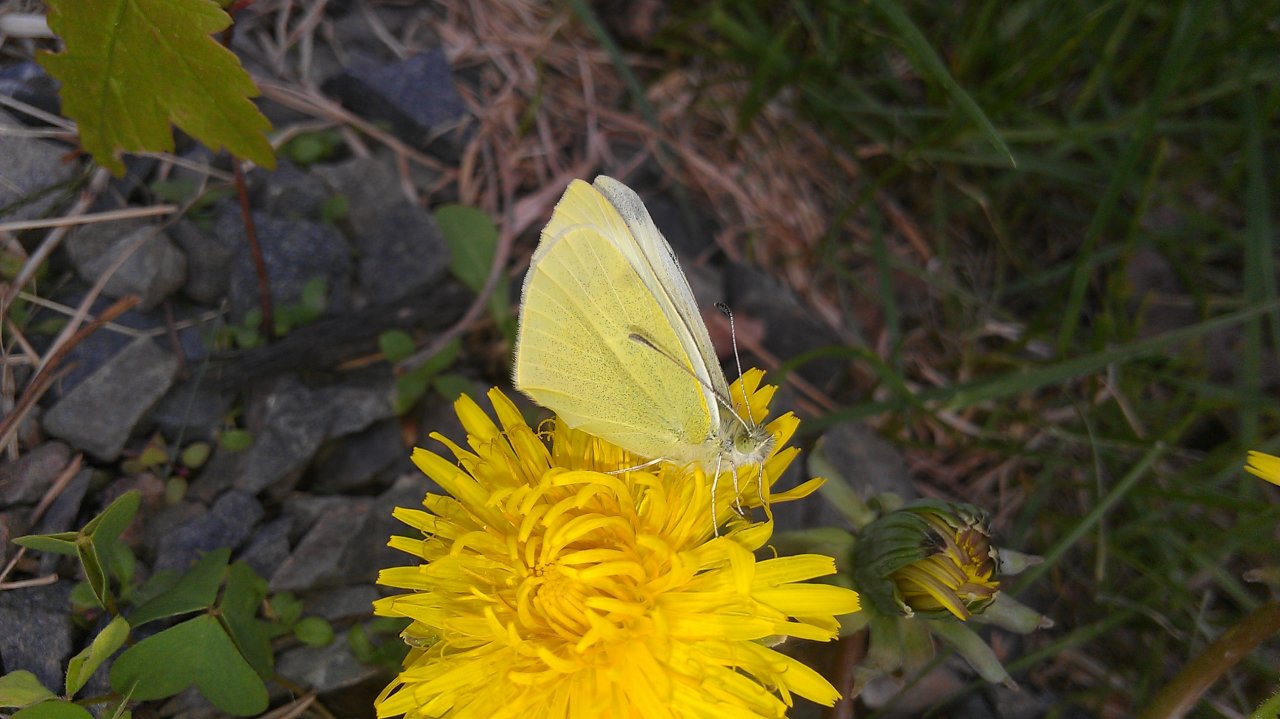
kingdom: Animalia
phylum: Arthropoda
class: Insecta
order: Lepidoptera
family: Pieridae
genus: Pieris
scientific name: Pieris rapae
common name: Cabbage White
